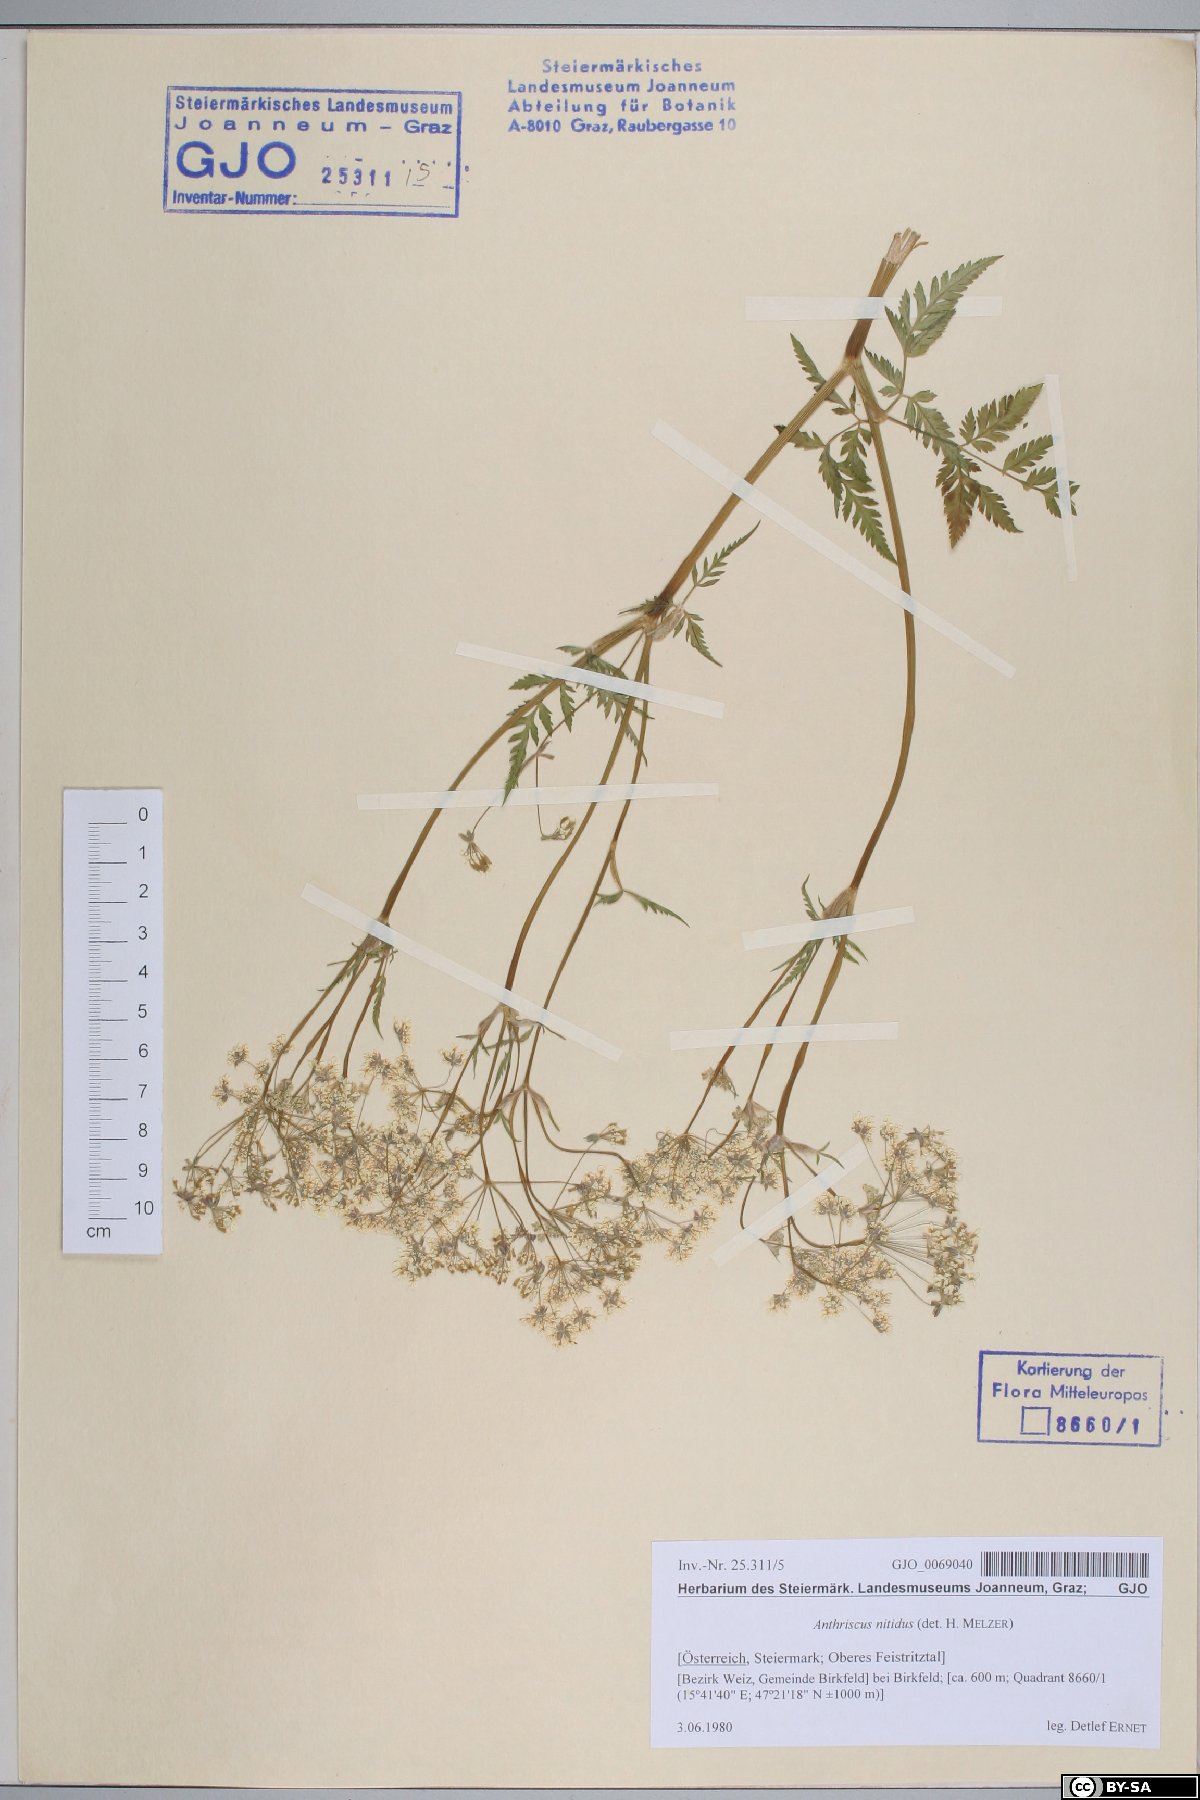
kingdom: Plantae
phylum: Tracheophyta
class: Magnoliopsida
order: Apiales
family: Apiaceae
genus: Anthriscus
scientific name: Anthriscus nitida
